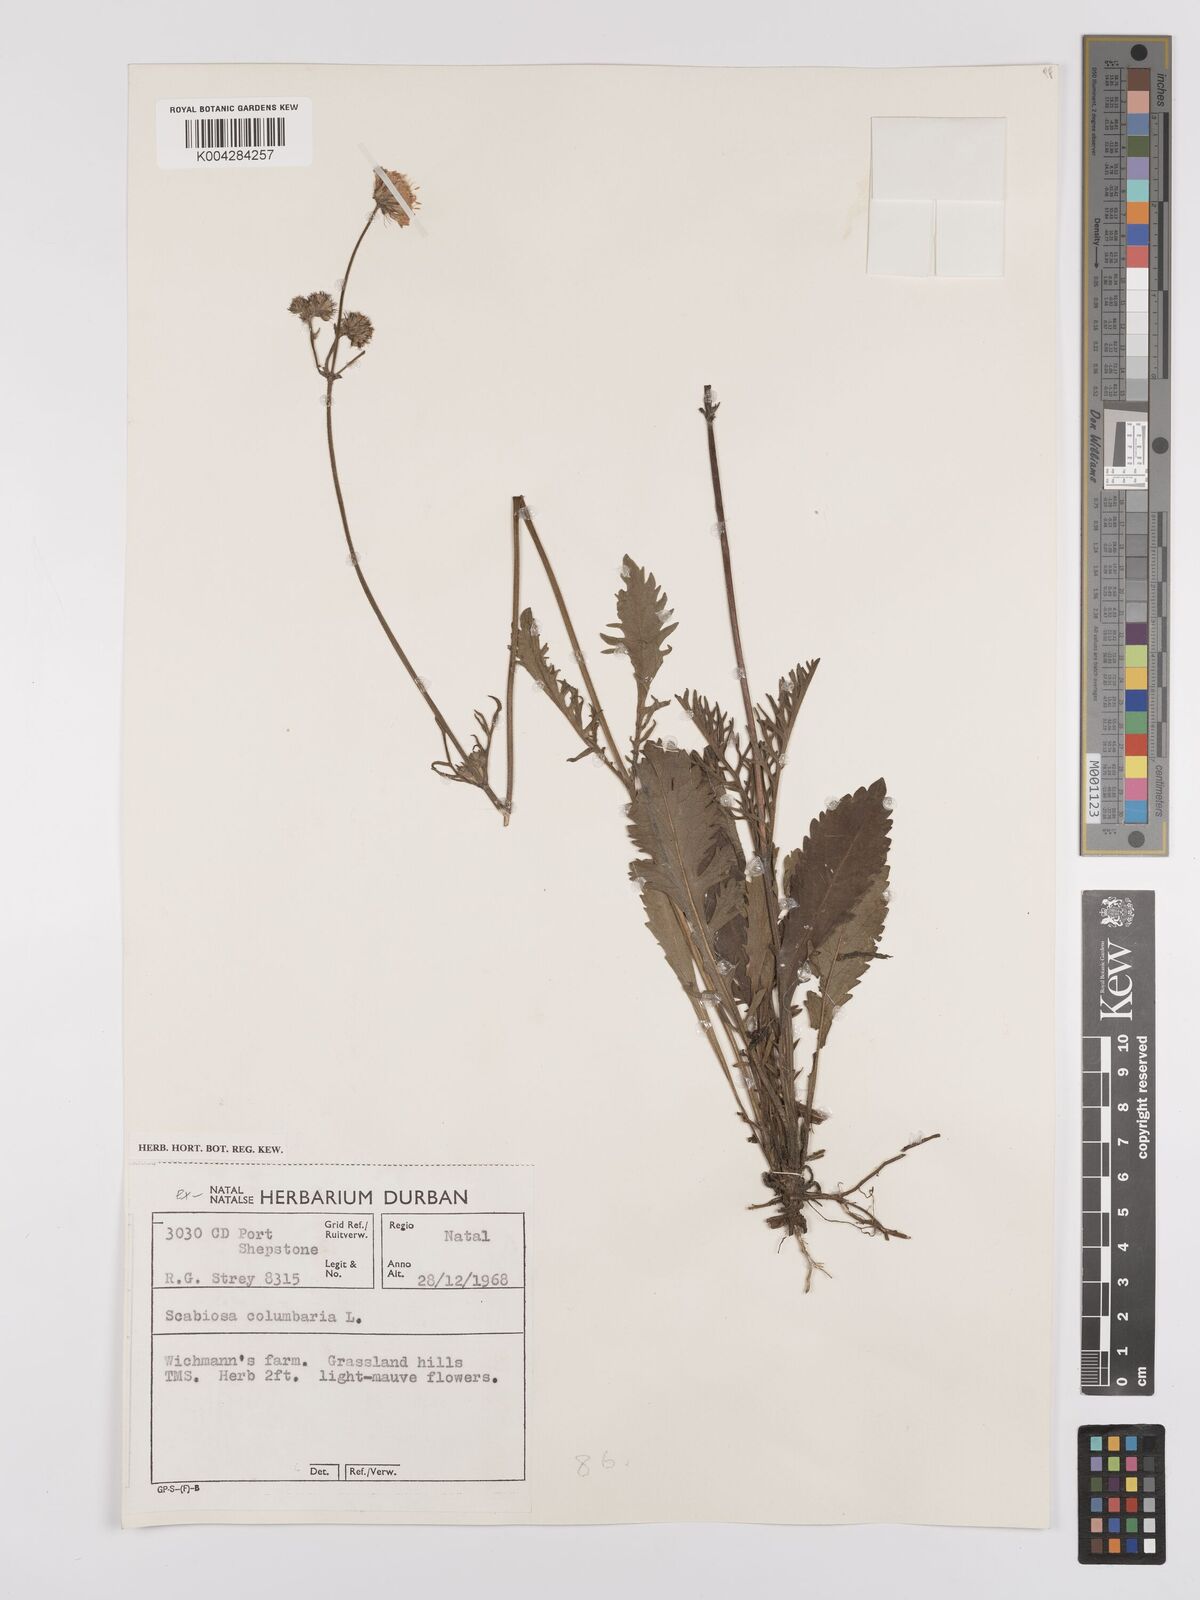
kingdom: Plantae
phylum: Tracheophyta
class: Magnoliopsida
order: Dipsacales
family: Caprifoliaceae
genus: Scabiosa
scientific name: Scabiosa columbaria
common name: Small scabious
